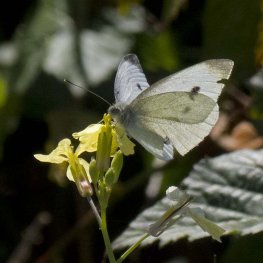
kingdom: Animalia
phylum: Arthropoda
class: Insecta
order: Lepidoptera
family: Pieridae
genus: Pieris
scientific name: Pieris rapae
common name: Cabbage White
